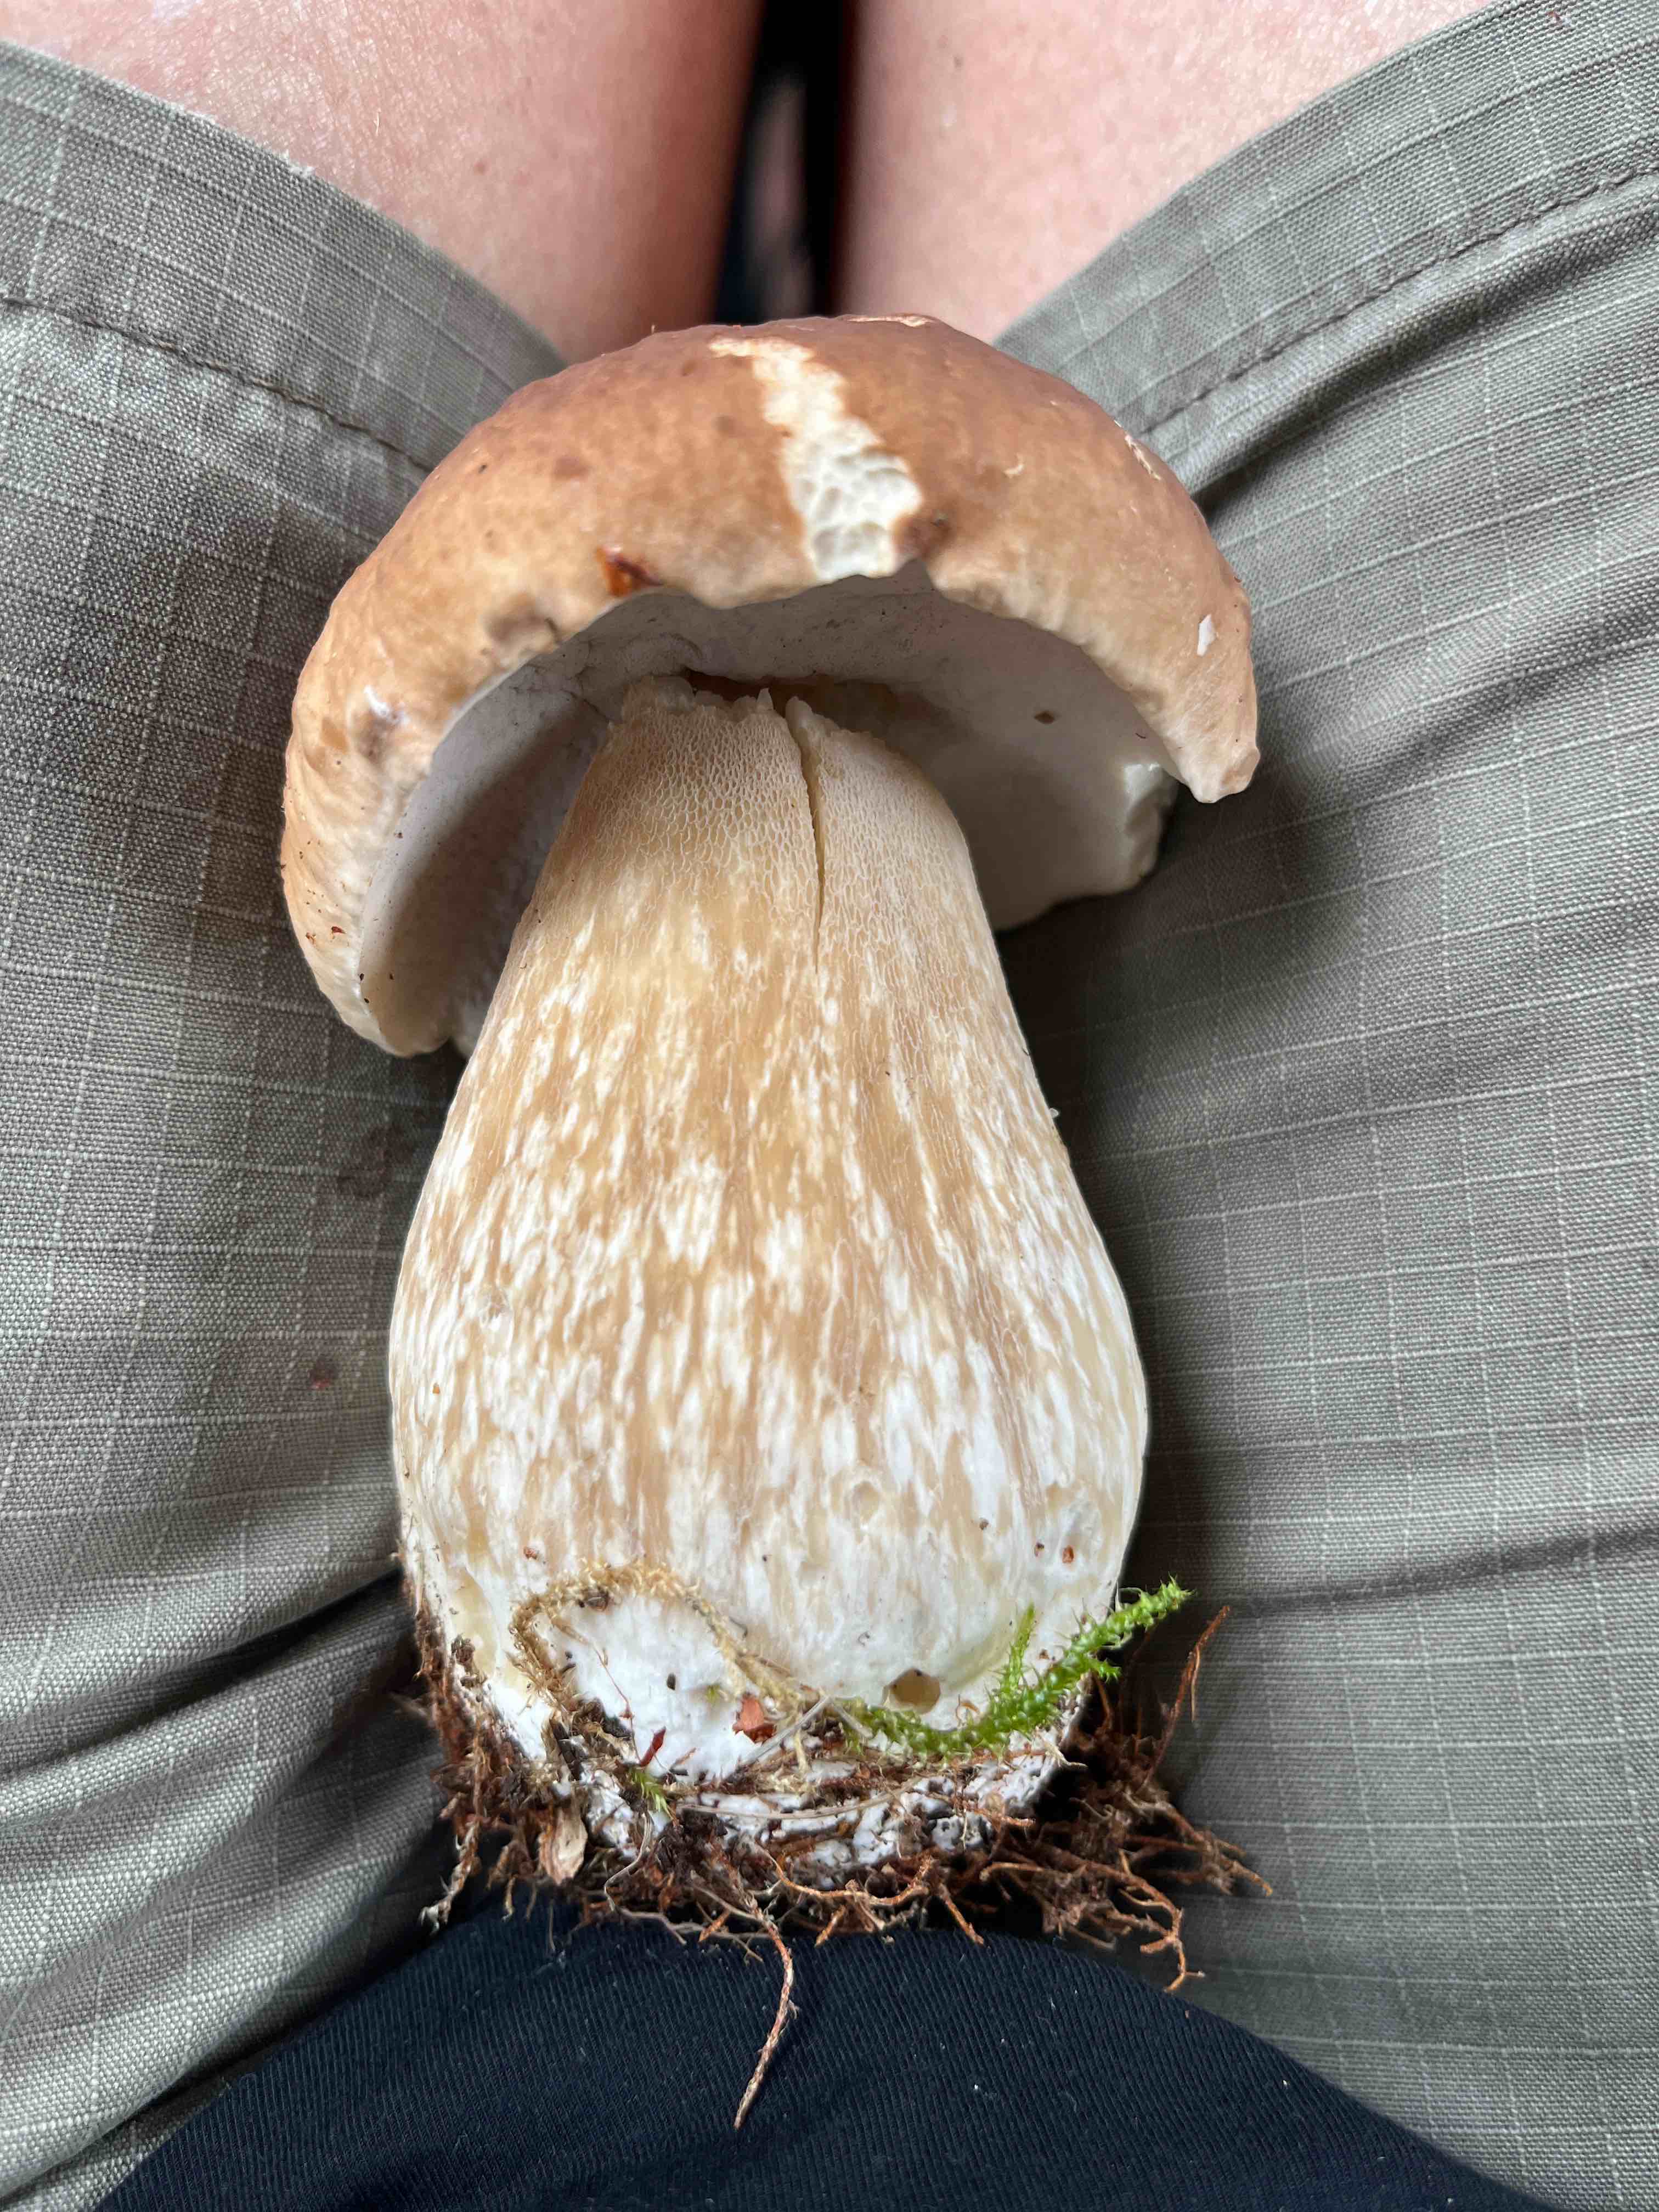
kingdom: Fungi
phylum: Basidiomycota
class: Agaricomycetes
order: Boletales
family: Boletaceae
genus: Boletus
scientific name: Boletus edulis
